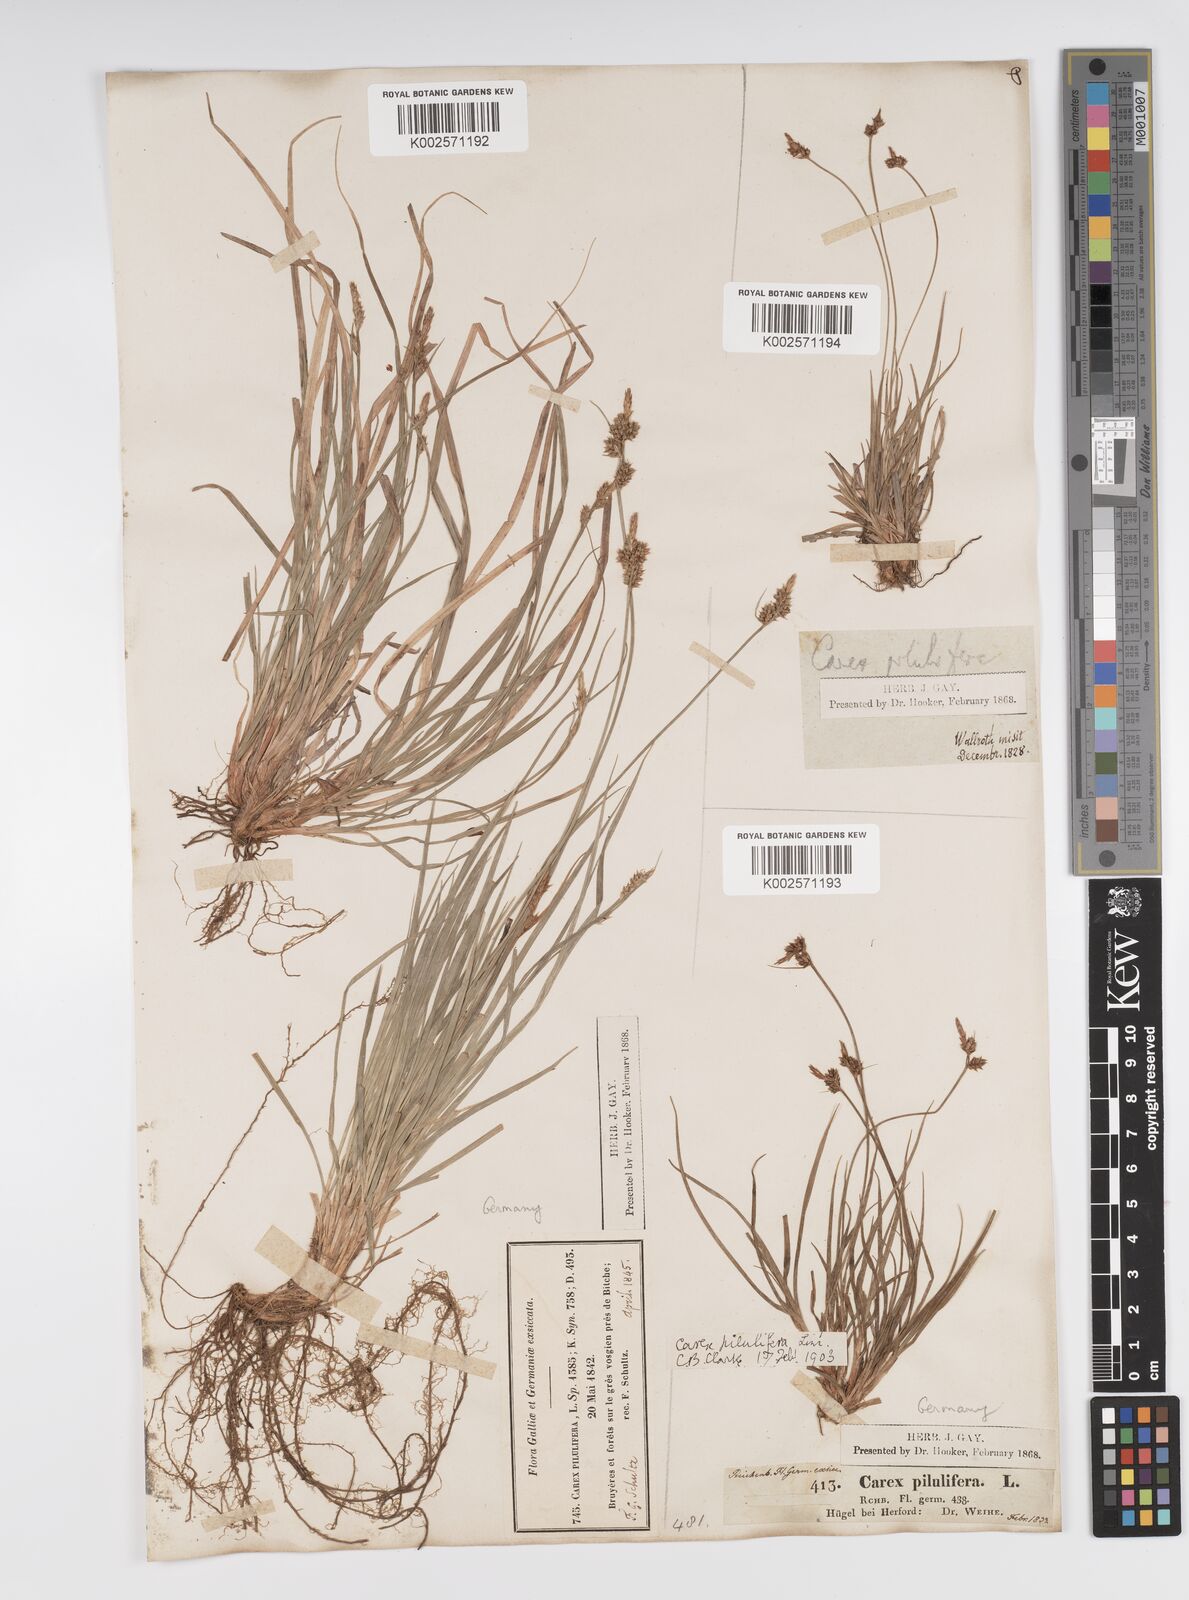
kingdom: Plantae
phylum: Tracheophyta
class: Liliopsida
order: Poales
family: Cyperaceae
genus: Carex
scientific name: Carex pilulifera
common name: Pill sedge
